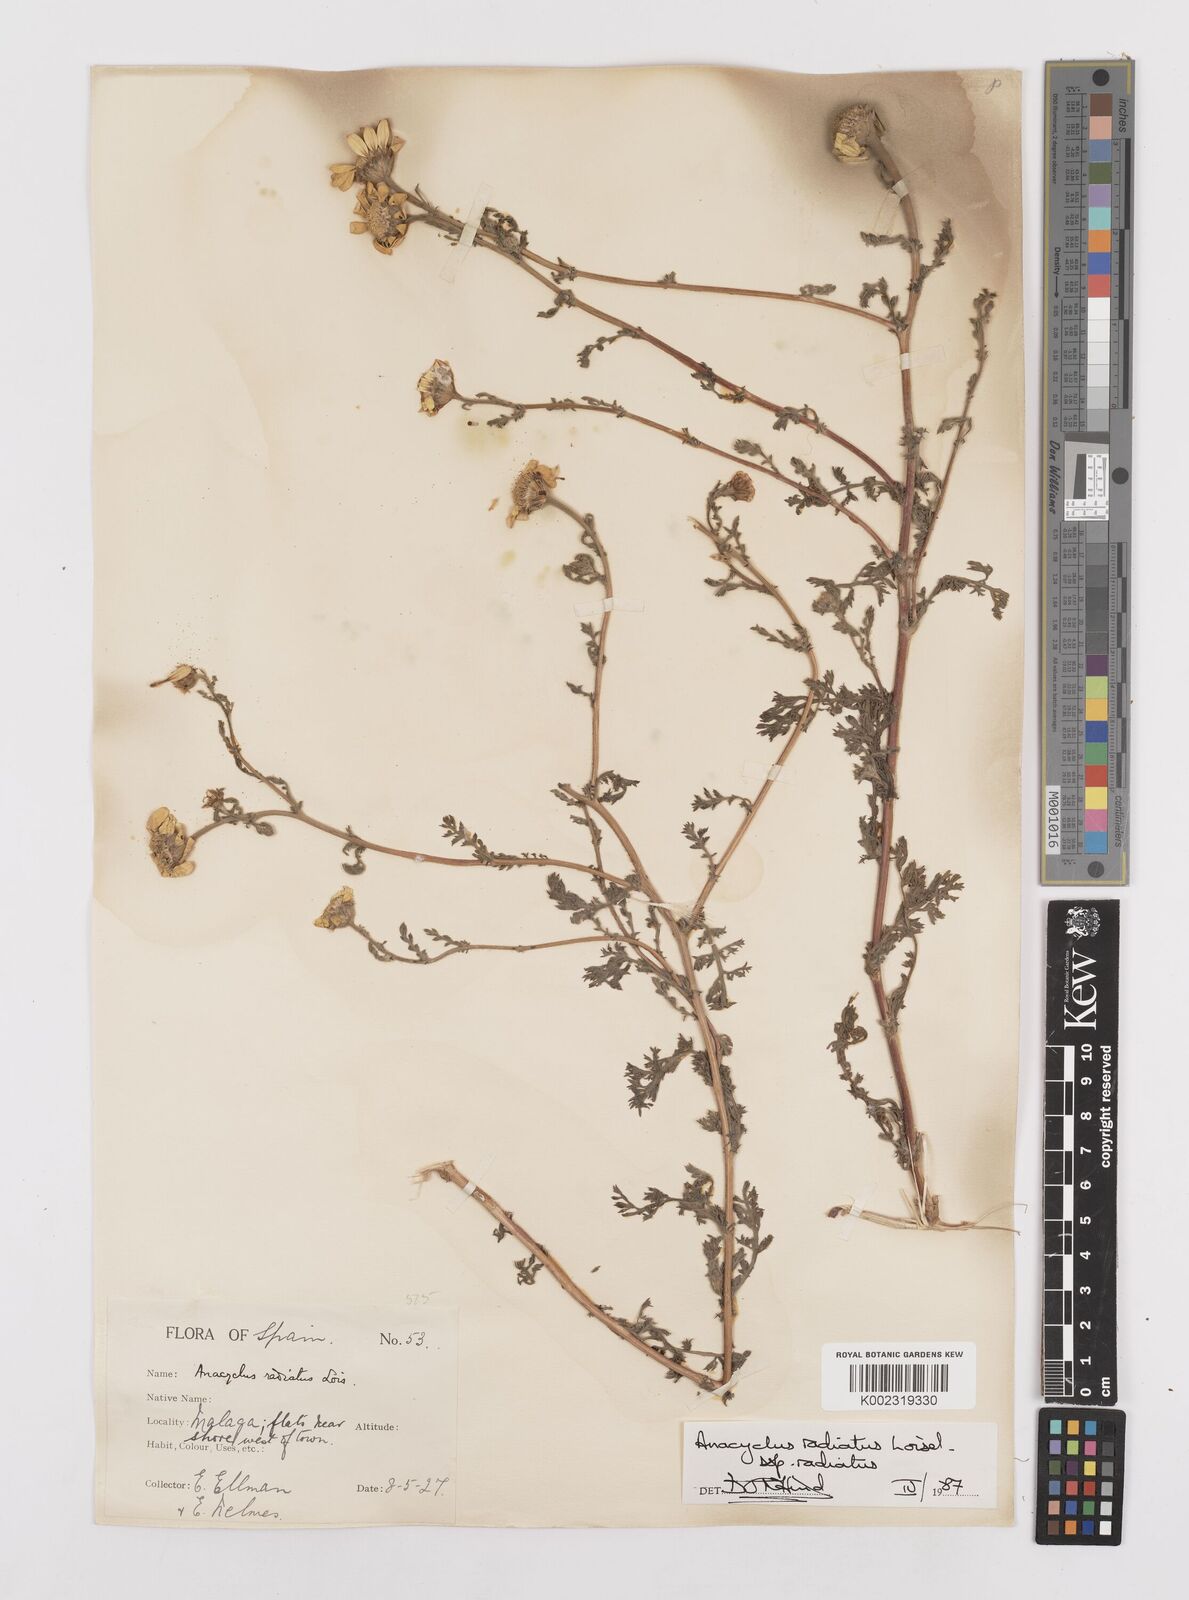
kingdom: Plantae
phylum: Tracheophyta
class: Magnoliopsida
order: Asterales
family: Asteraceae
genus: Anacyclus
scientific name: Anacyclus radiatus
